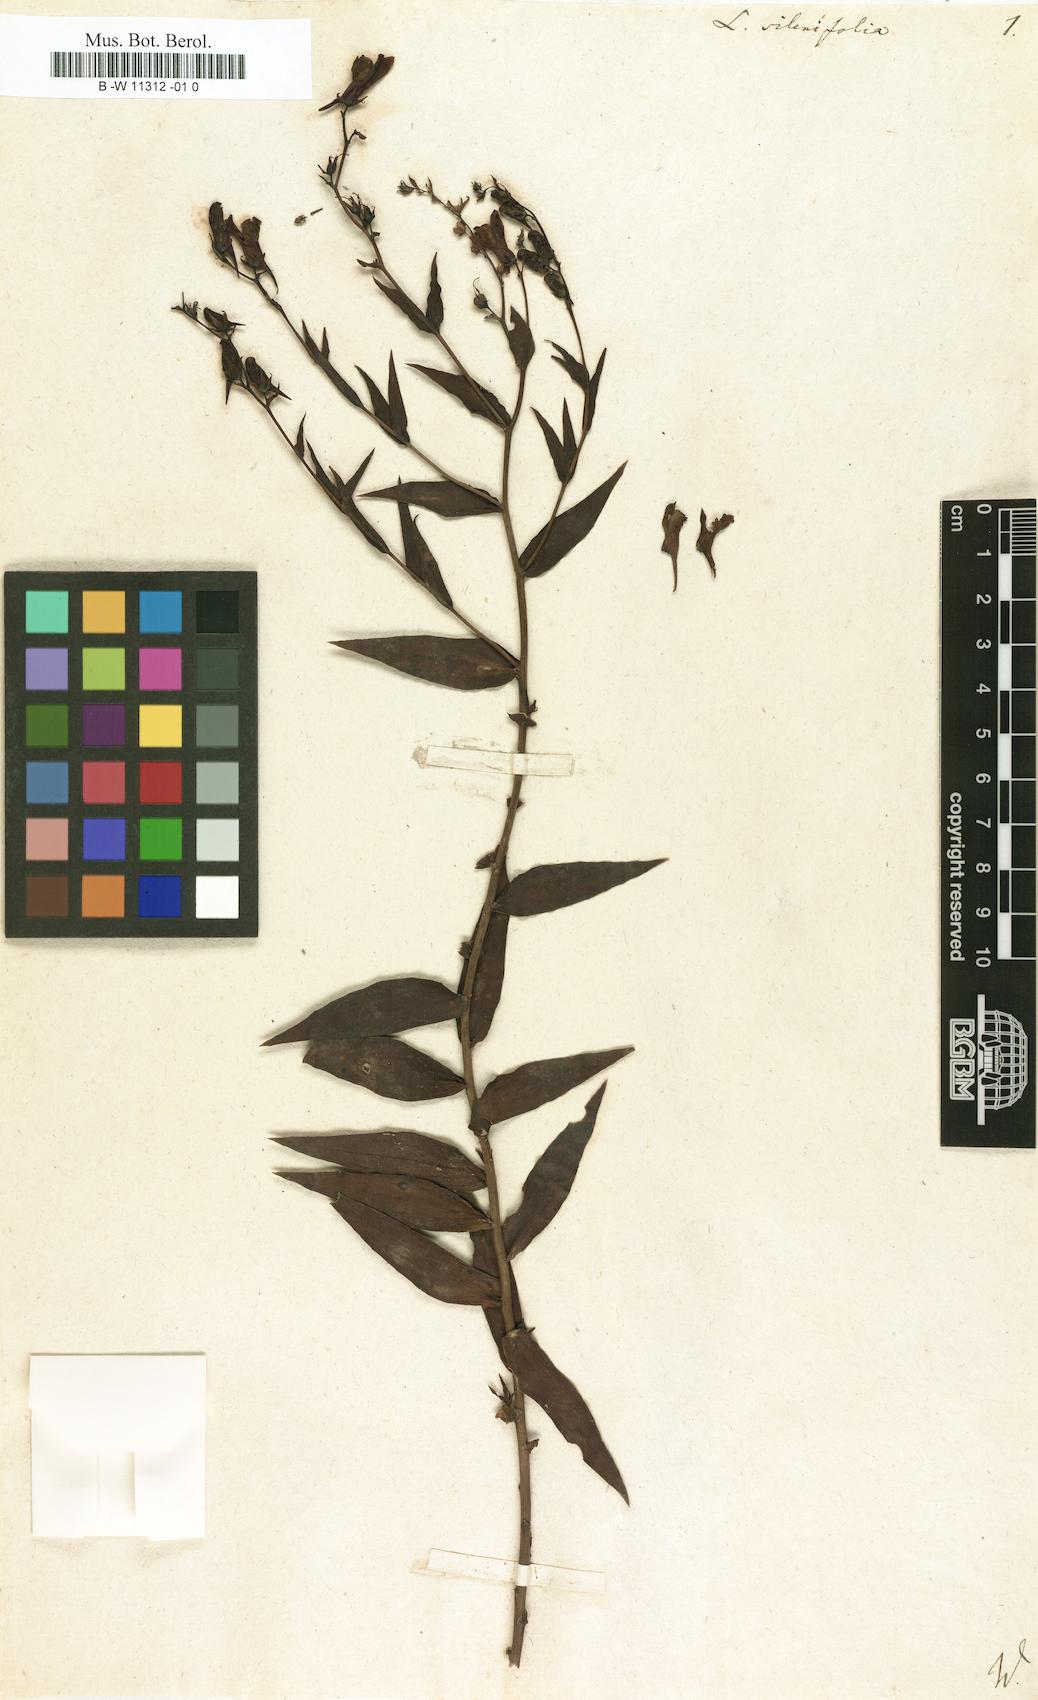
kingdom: Plantae
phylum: Tracheophyta
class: Magnoliopsida
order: Lamiales
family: Plantaginaceae
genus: Linaria
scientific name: Linaria genistifolia
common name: Broomleaf toadflax
